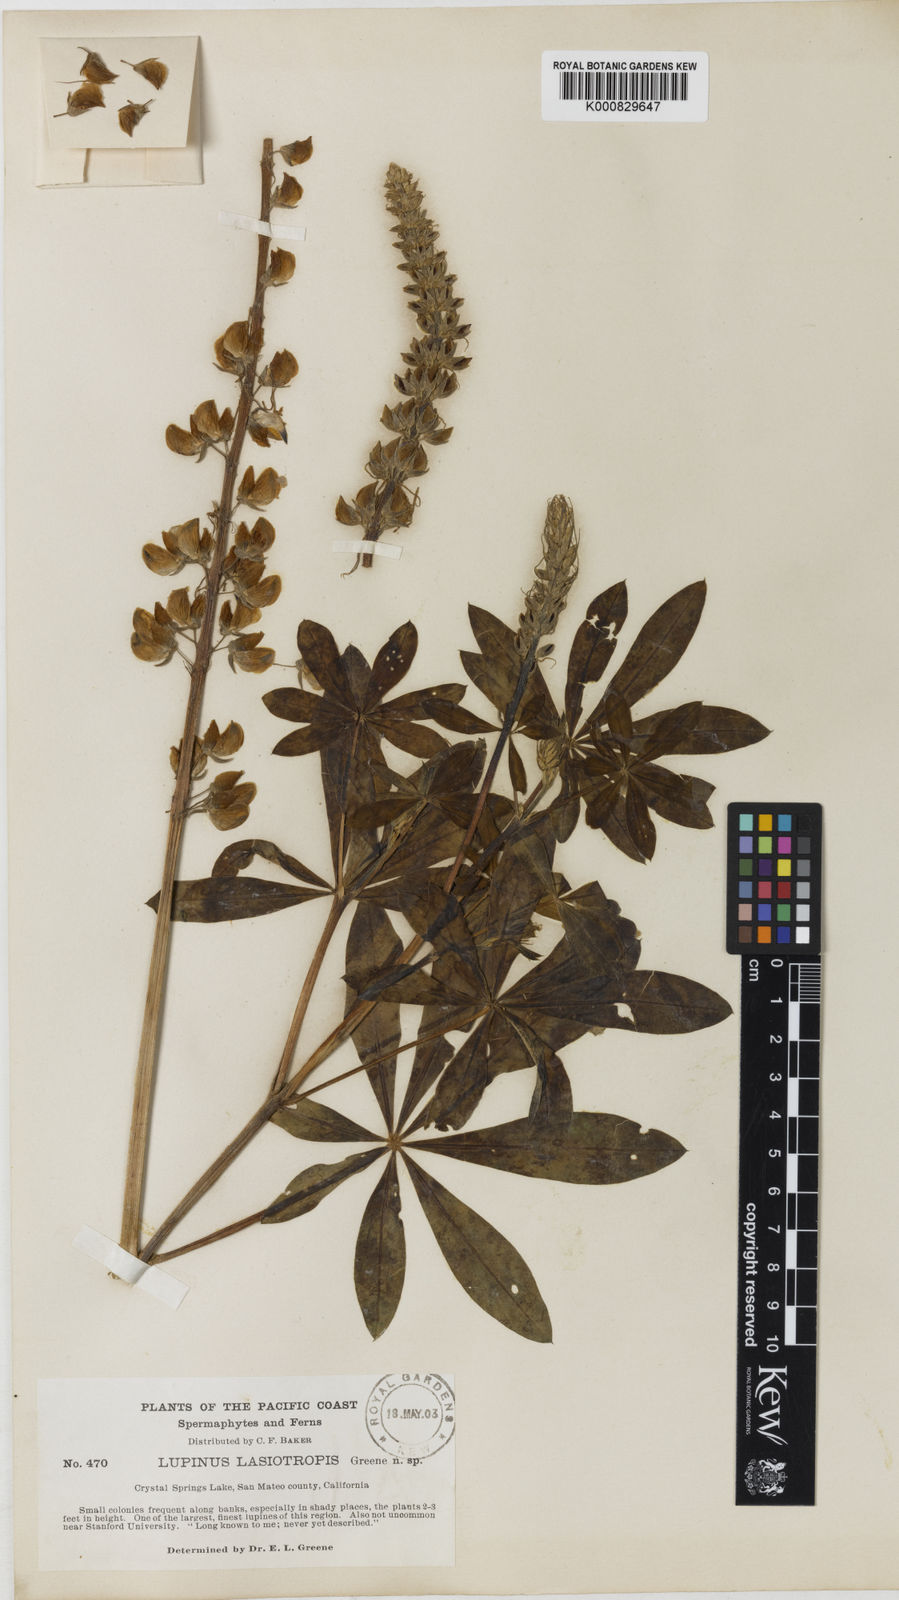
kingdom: Plantae
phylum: Tracheophyta
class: Magnoliopsida
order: Fabales
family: Fabaceae
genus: Lupinus
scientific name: Lupinus
